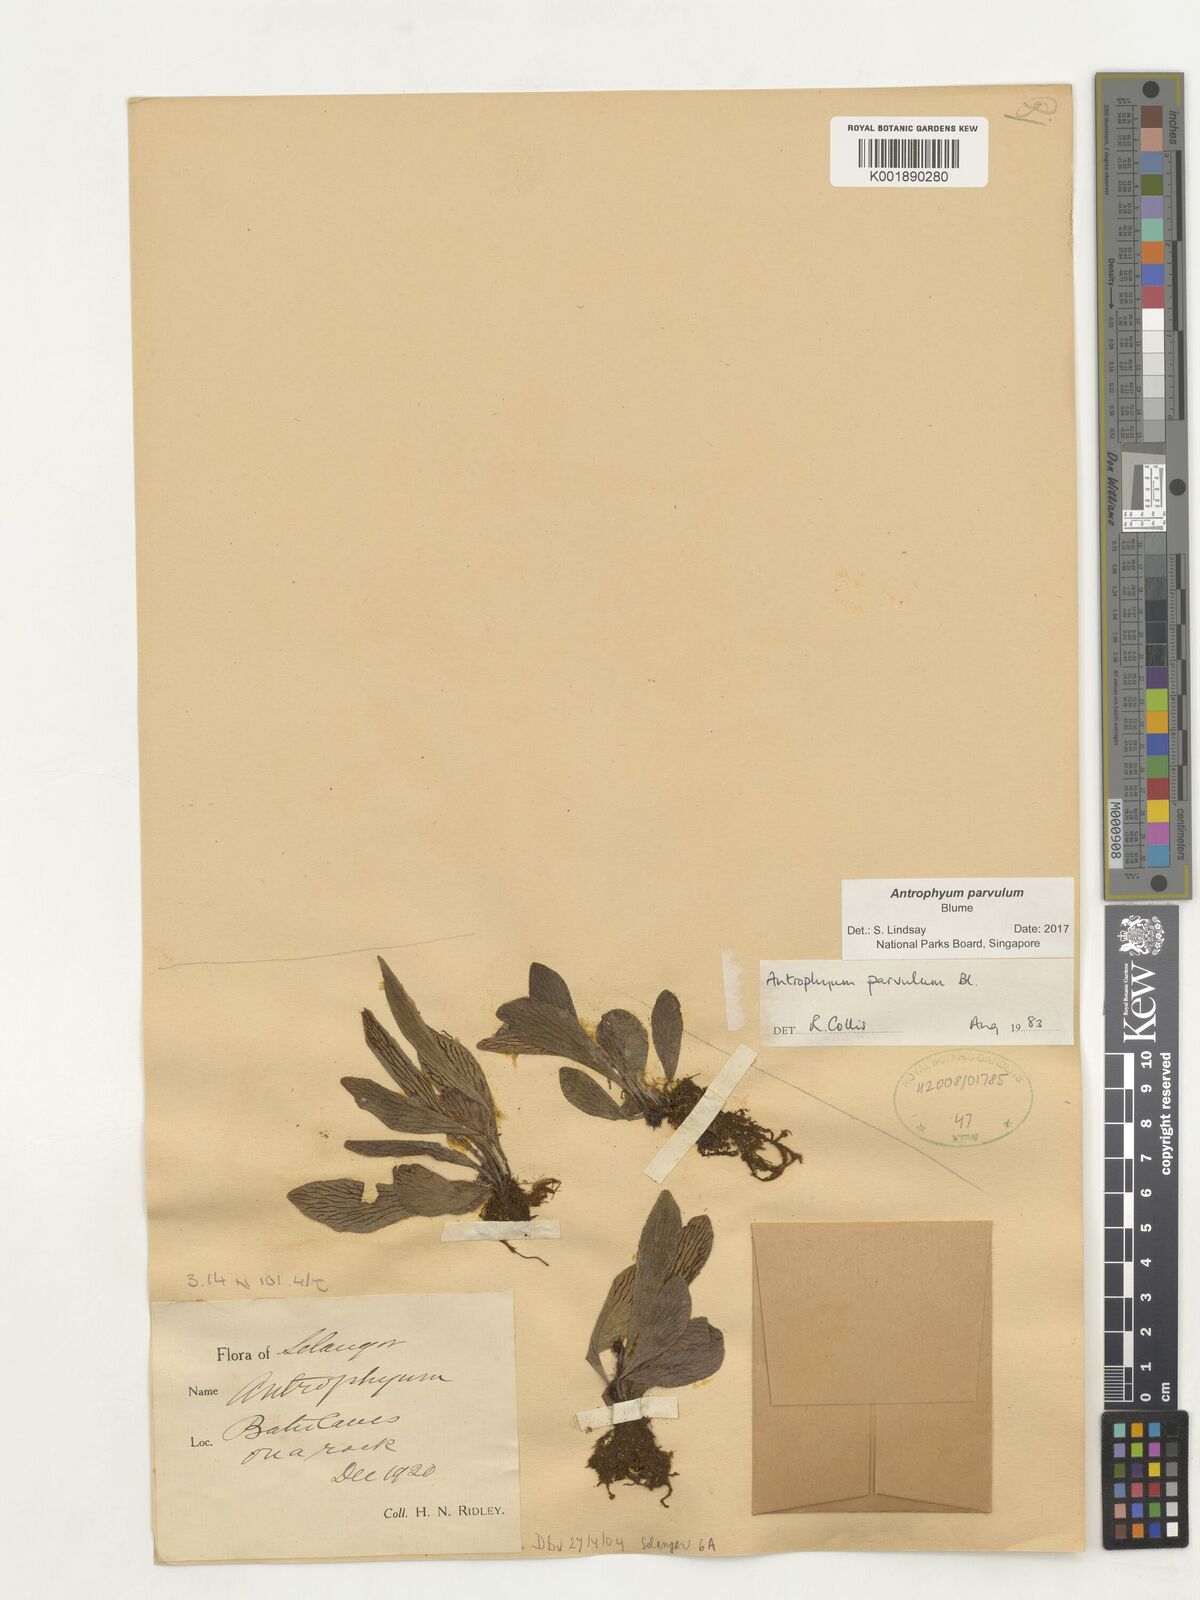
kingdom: Plantae
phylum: Tracheophyta
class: Polypodiopsida
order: Polypodiales
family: Pteridaceae
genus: Antrophyum
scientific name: Antrophyum parvulum
